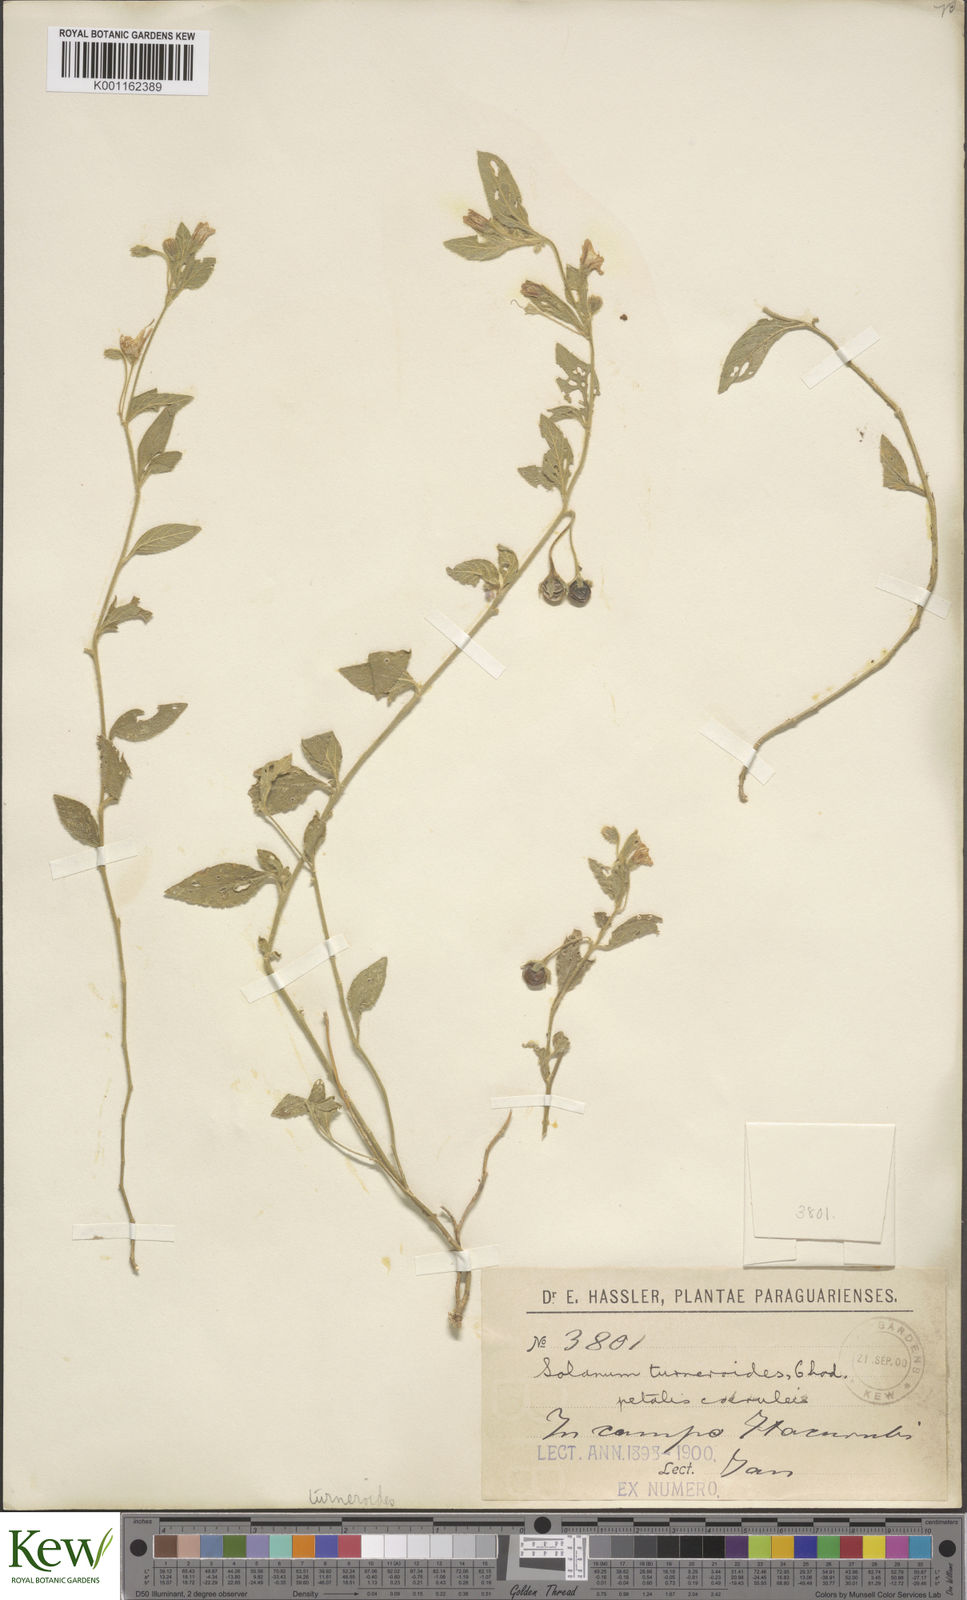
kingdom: Plantae
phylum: Tracheophyta
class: Magnoliopsida
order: Solanales
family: Solanaceae
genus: Solanum
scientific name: Solanum turneroides
